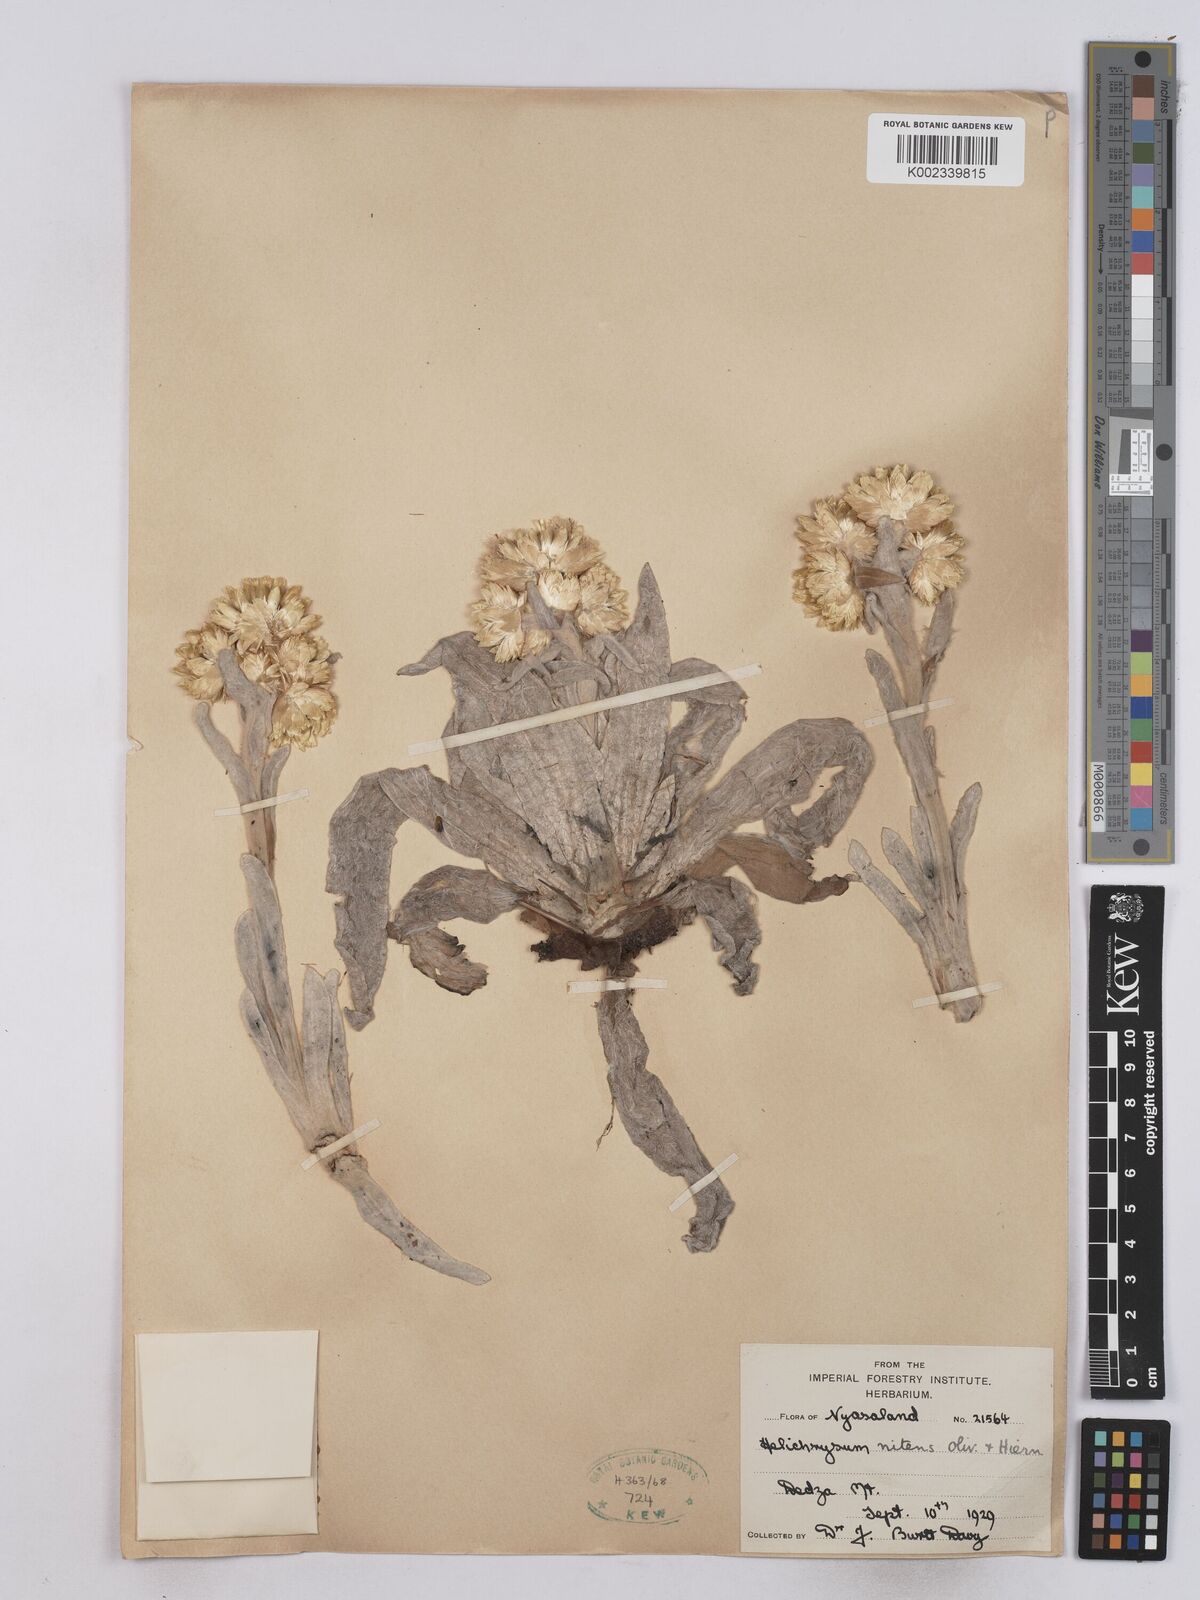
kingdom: Plantae
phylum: Tracheophyta
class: Magnoliopsida
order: Asterales
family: Asteraceae
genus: Helichrysum
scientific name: Helichrysum nitens
